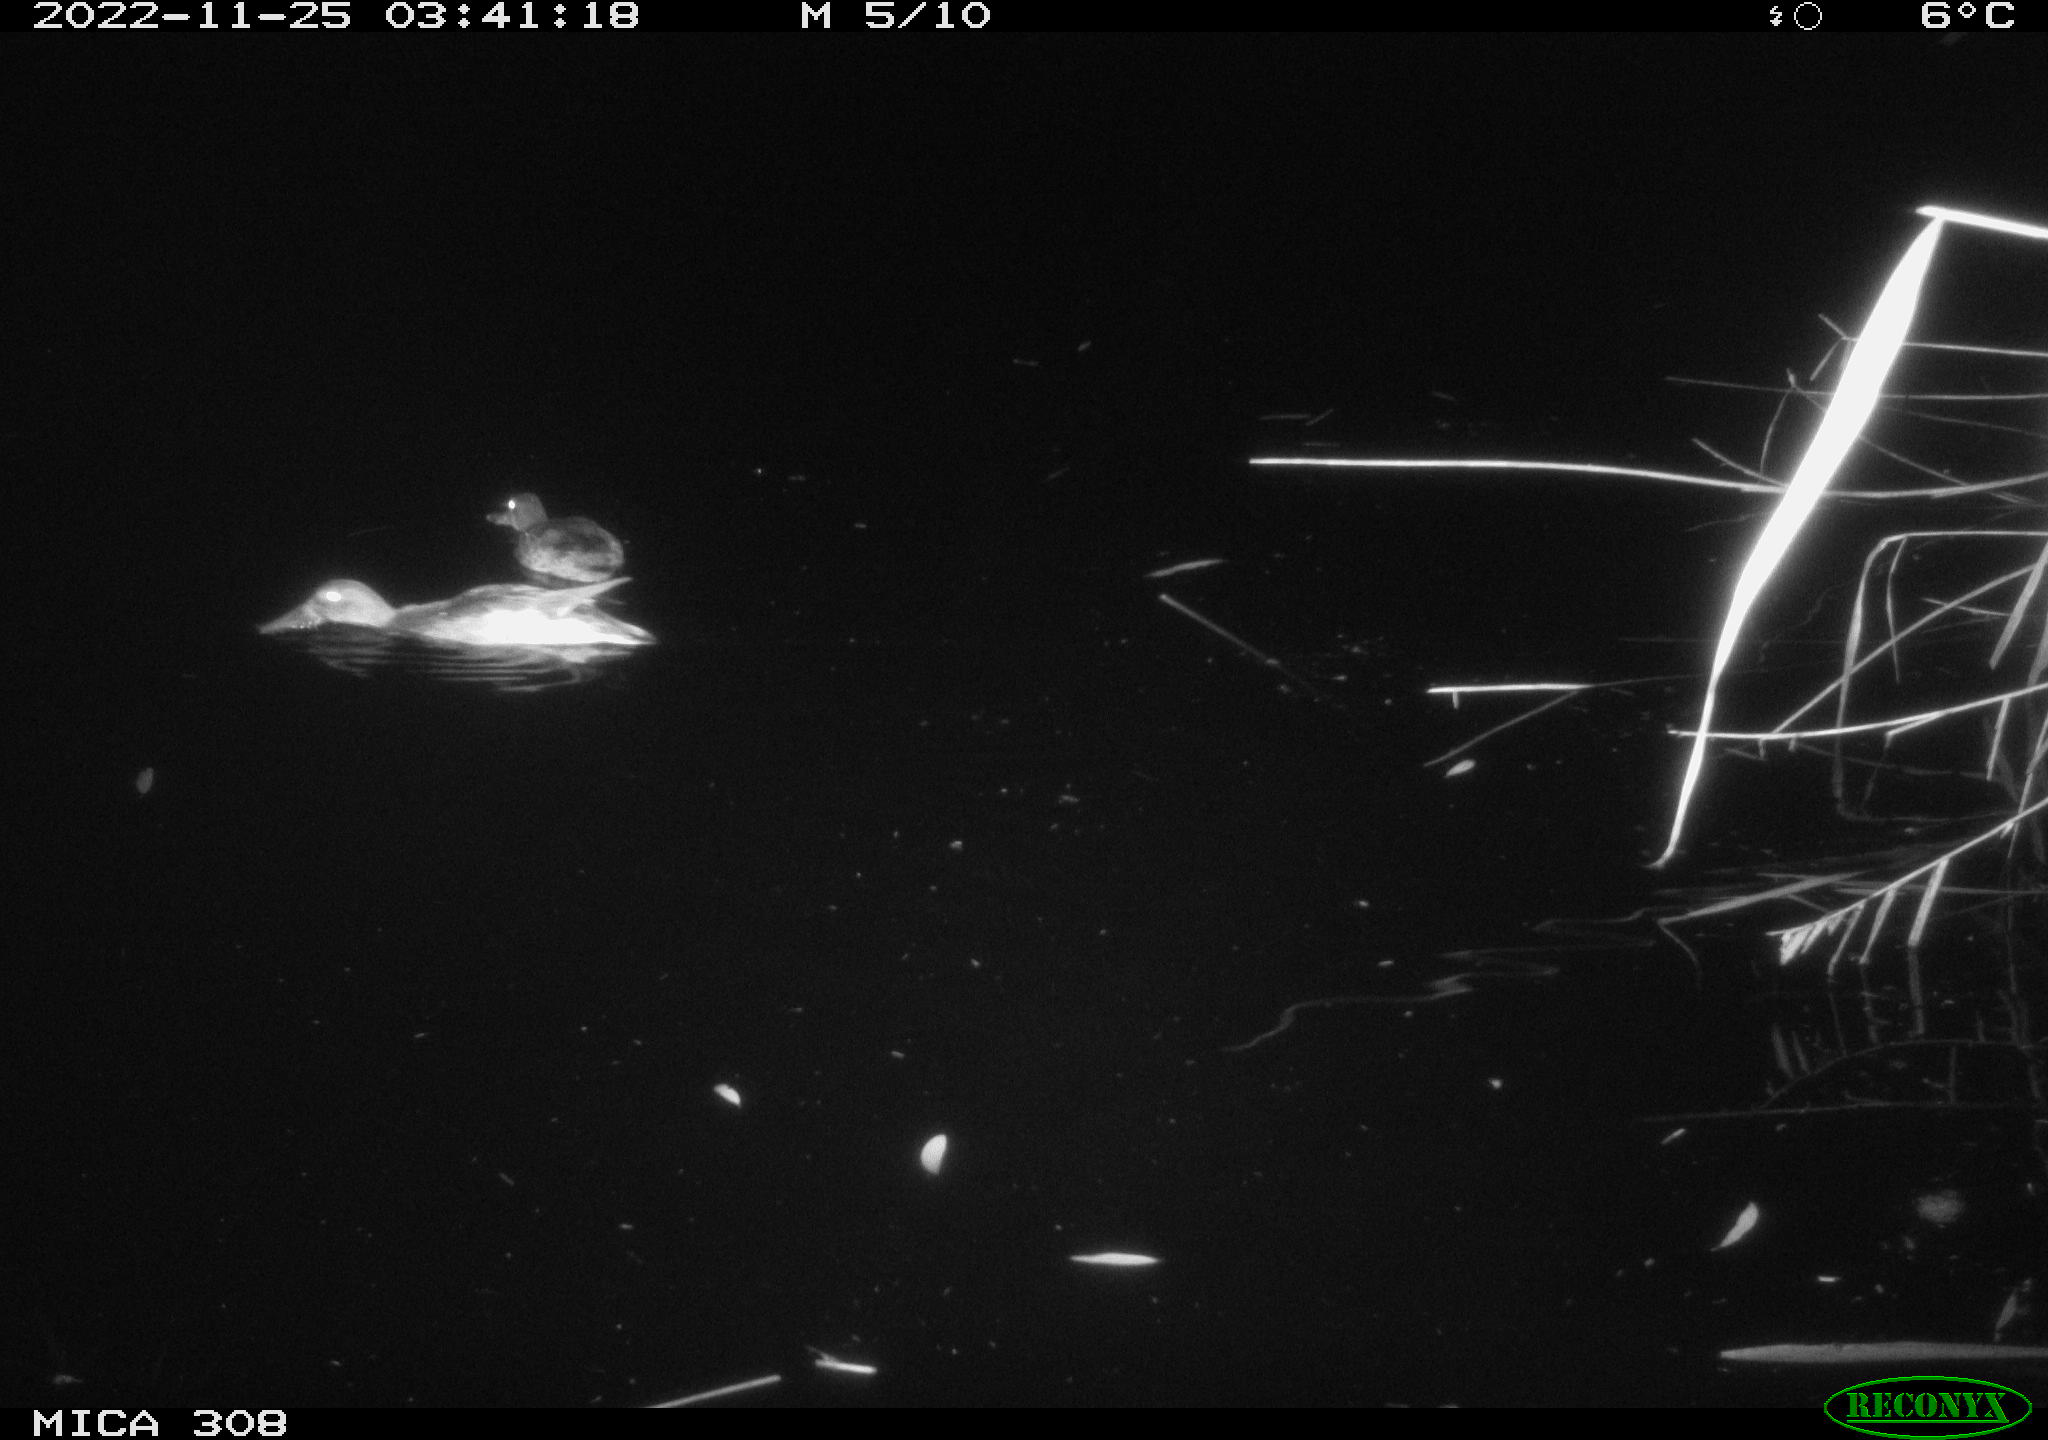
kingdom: Animalia
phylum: Chordata
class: Aves
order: Anseriformes
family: Anatidae
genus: Anas
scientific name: Anas
